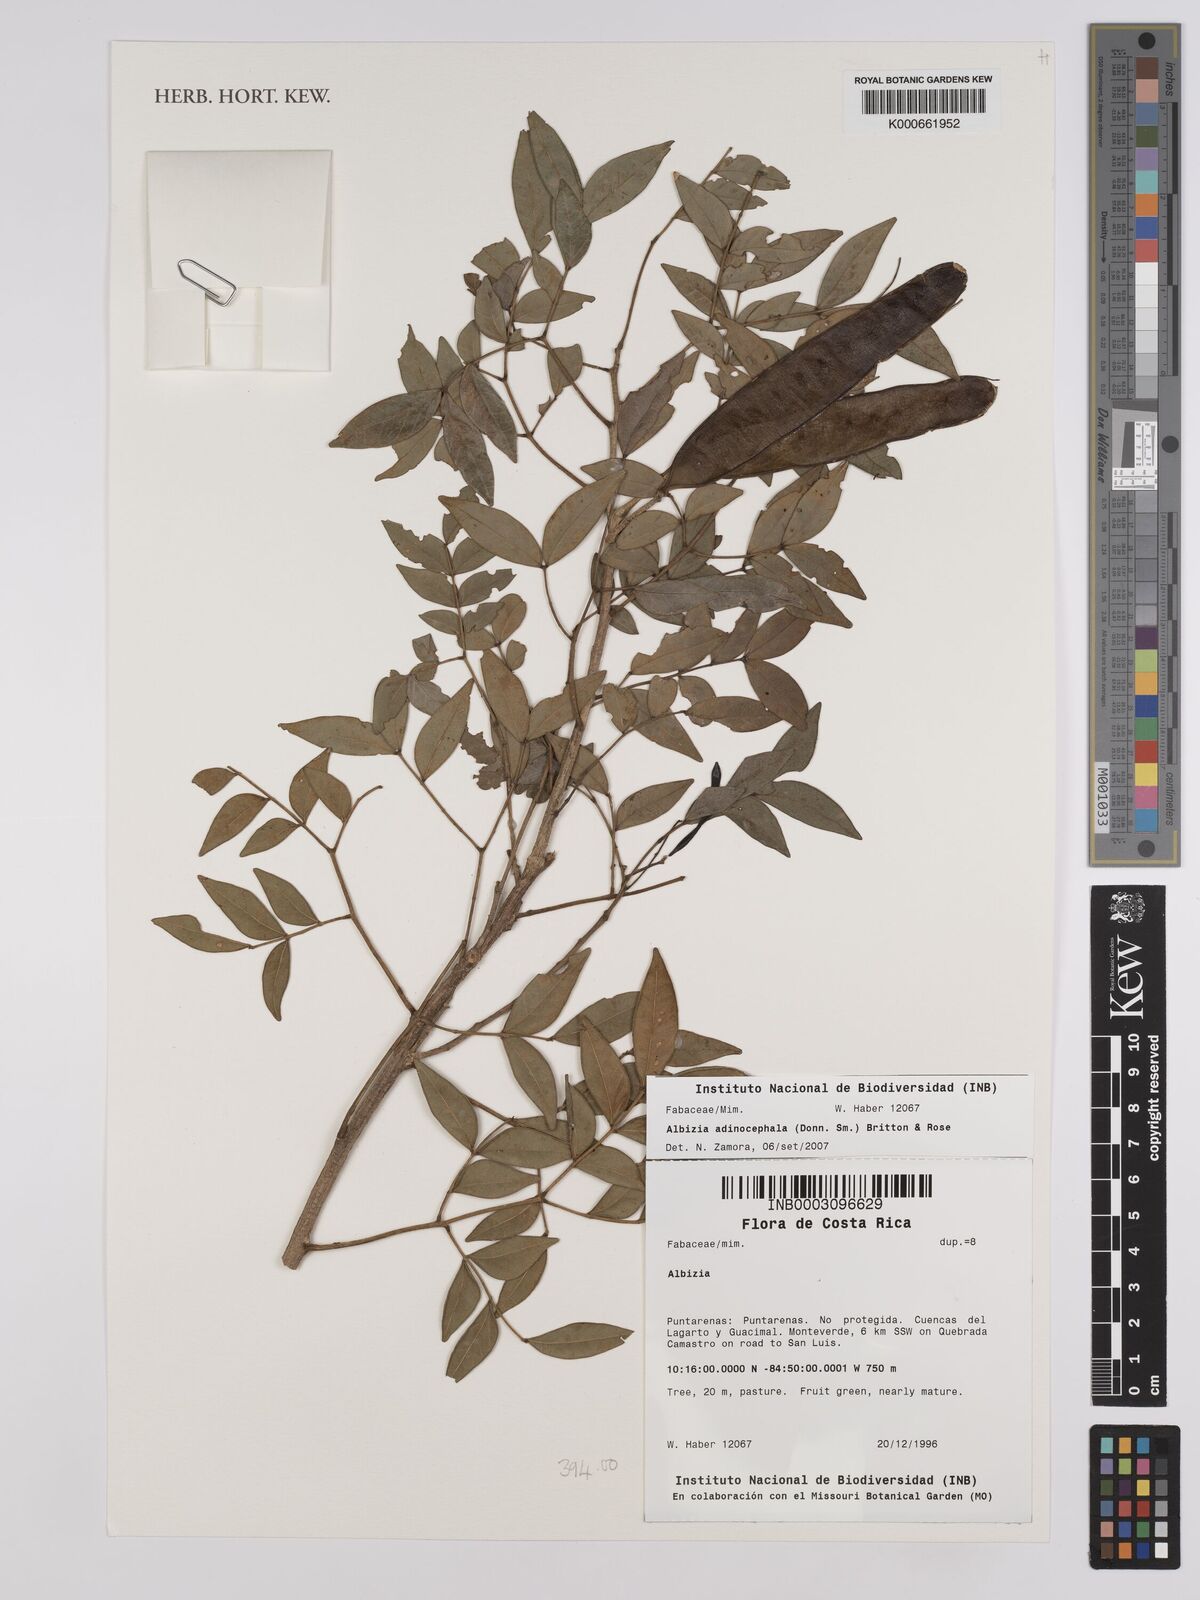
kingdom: Plantae
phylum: Tracheophyta
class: Magnoliopsida
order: Fabales
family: Fabaceae
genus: Albizia
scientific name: Albizia
